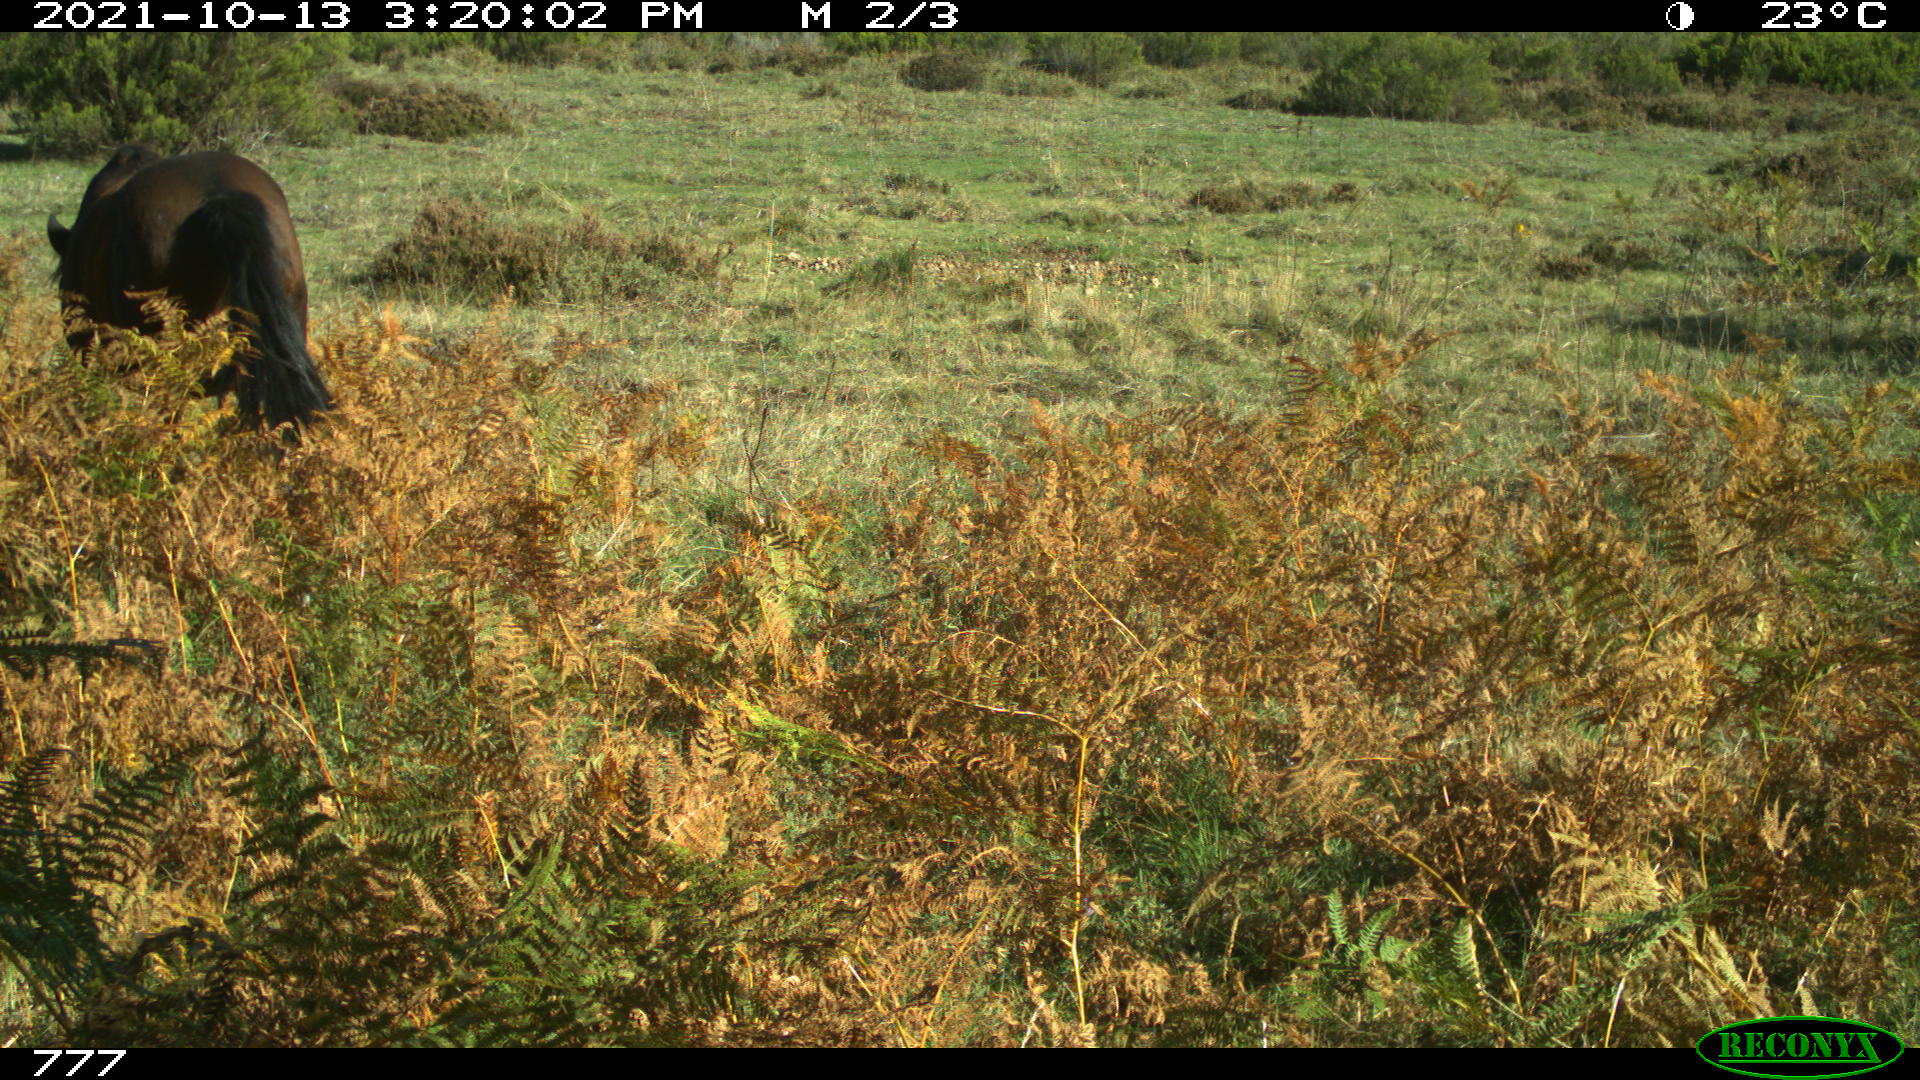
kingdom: Animalia
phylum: Chordata
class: Mammalia
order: Perissodactyla
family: Equidae
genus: Equus
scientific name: Equus caballus
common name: Horse
